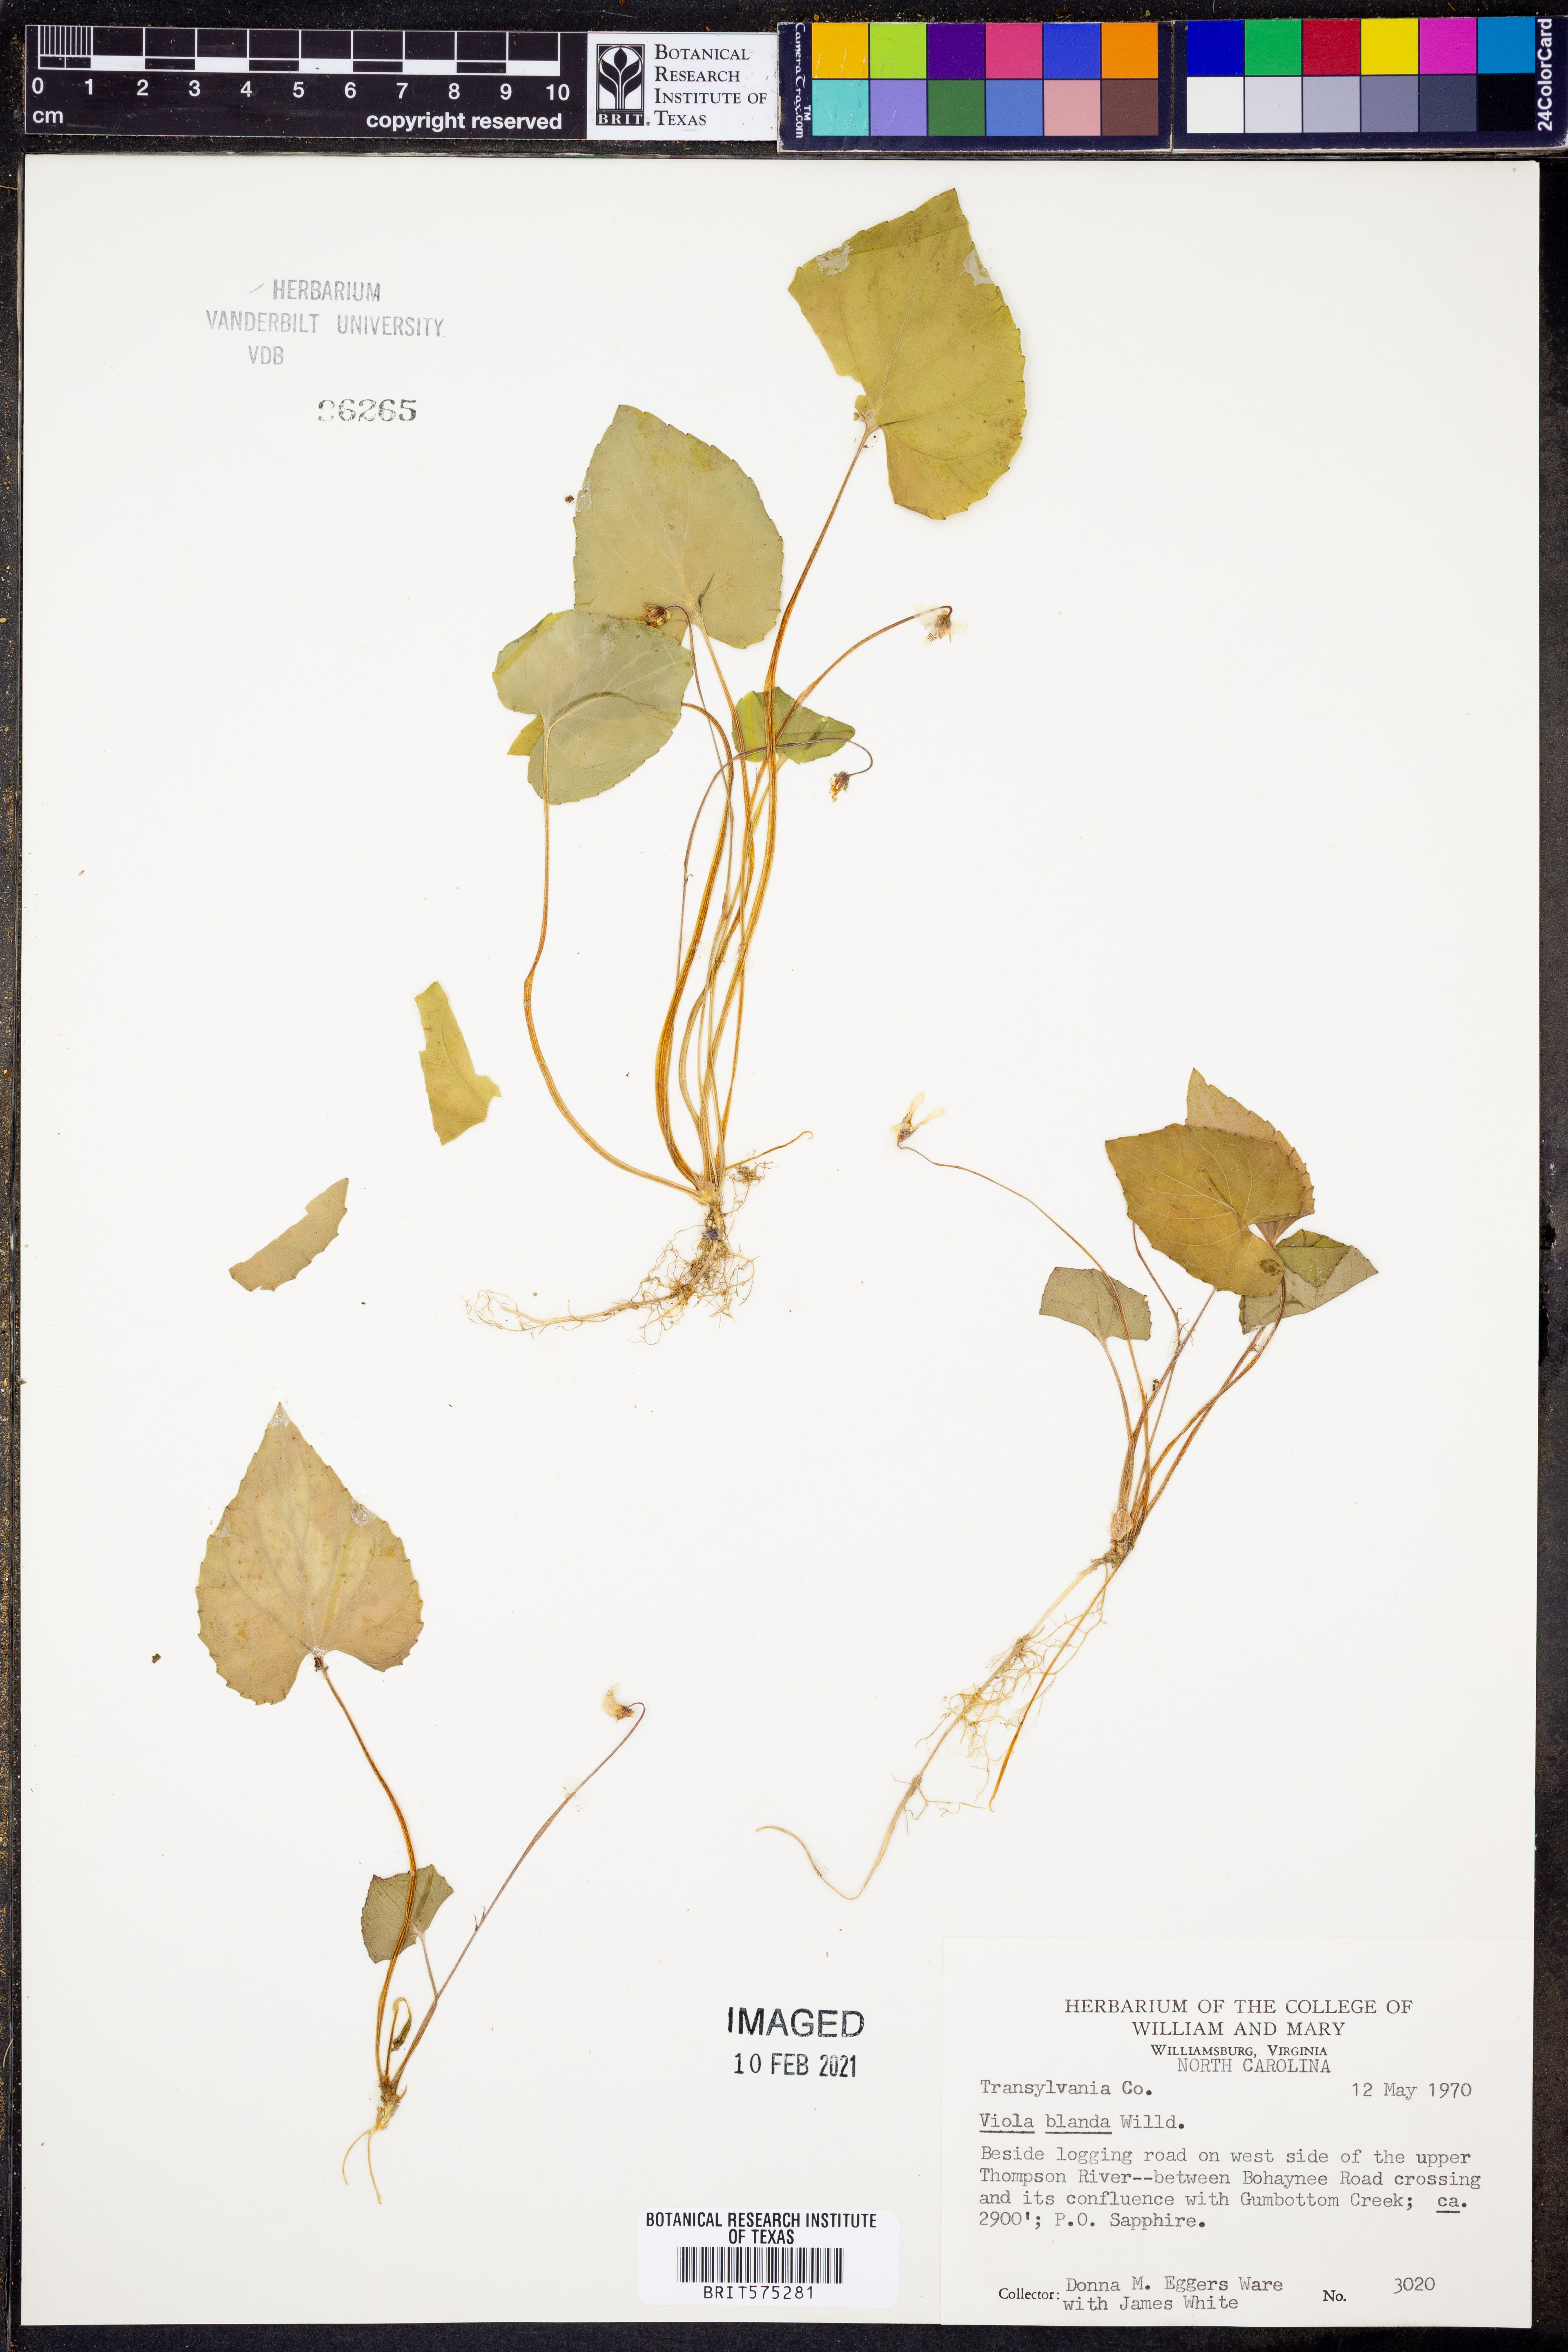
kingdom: Plantae
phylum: Tracheophyta
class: Magnoliopsida
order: Malpighiales
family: Violaceae
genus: Viola
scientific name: Viola blanda
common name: Sweet white violet
